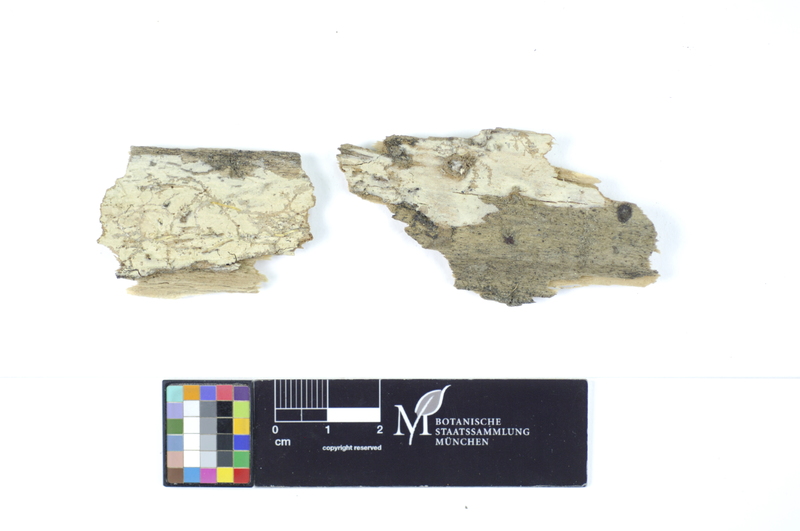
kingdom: Fungi
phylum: Basidiomycota
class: Agaricomycetes
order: Hymenochaetales
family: Rickenellaceae
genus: Peniophorella
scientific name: Peniophorella praetermissa
